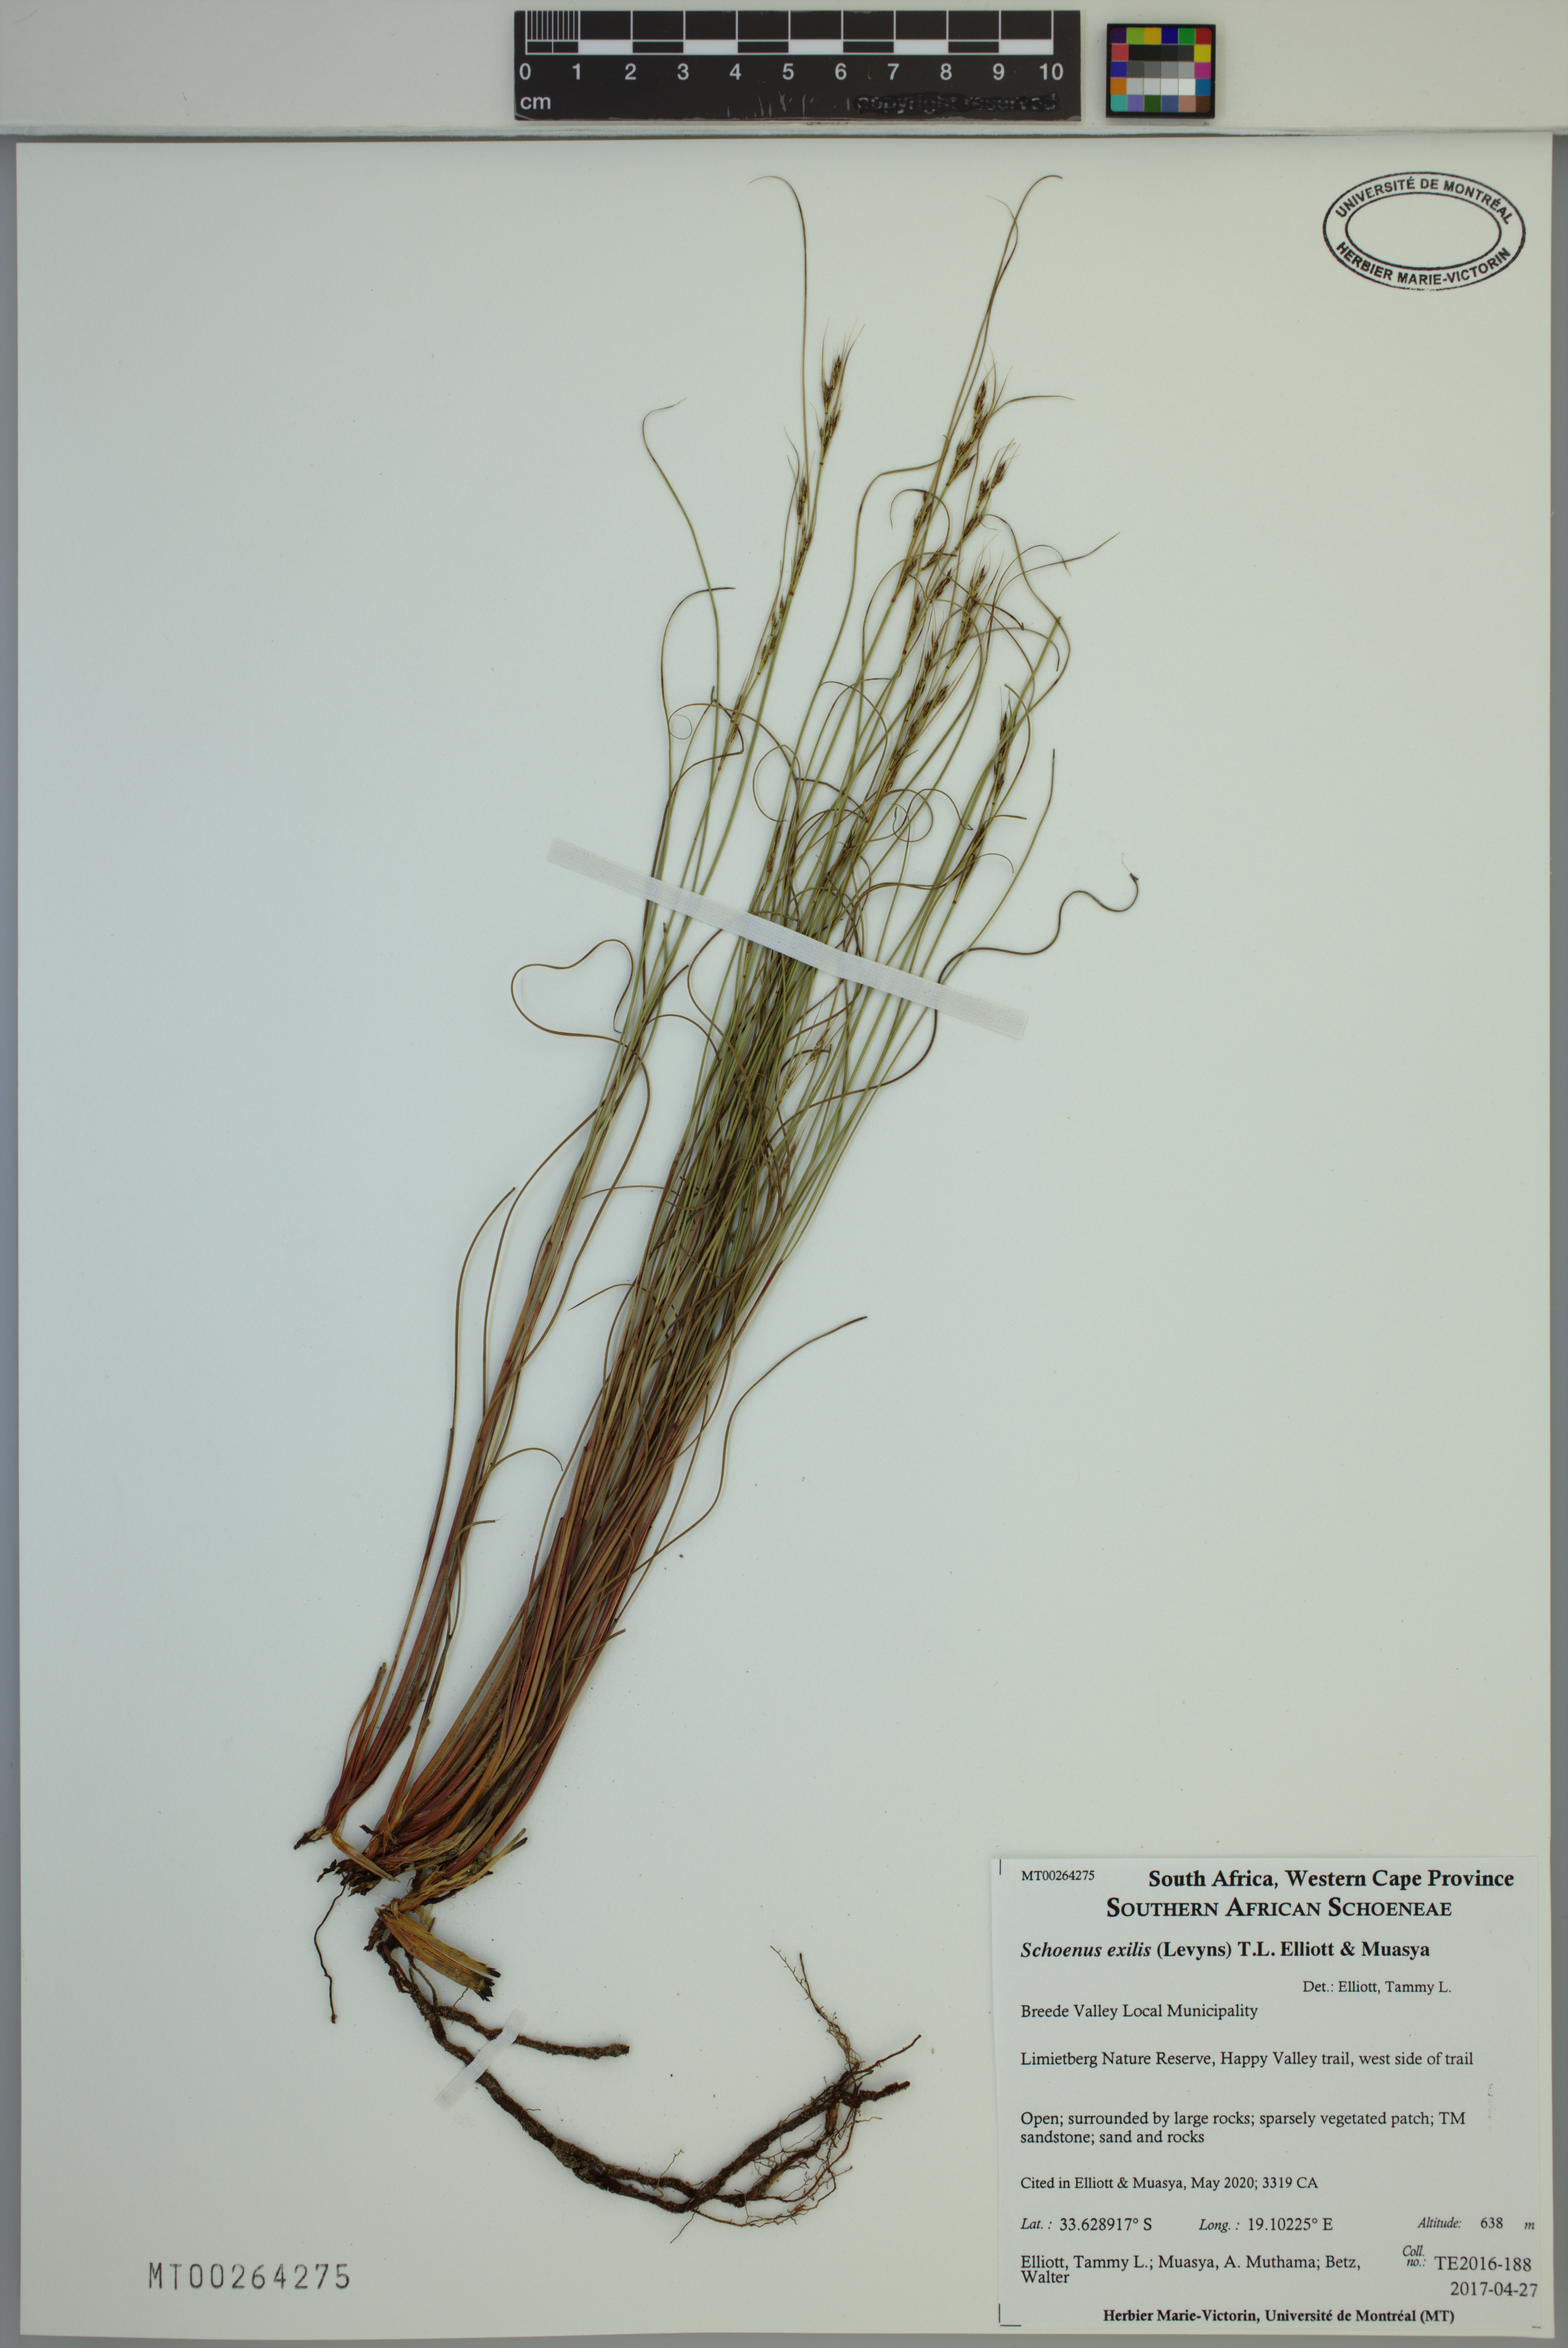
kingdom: Plantae
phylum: Tracheophyta
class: Liliopsida
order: Poales
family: Cyperaceae
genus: Schoenus
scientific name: Schoenus exilis
